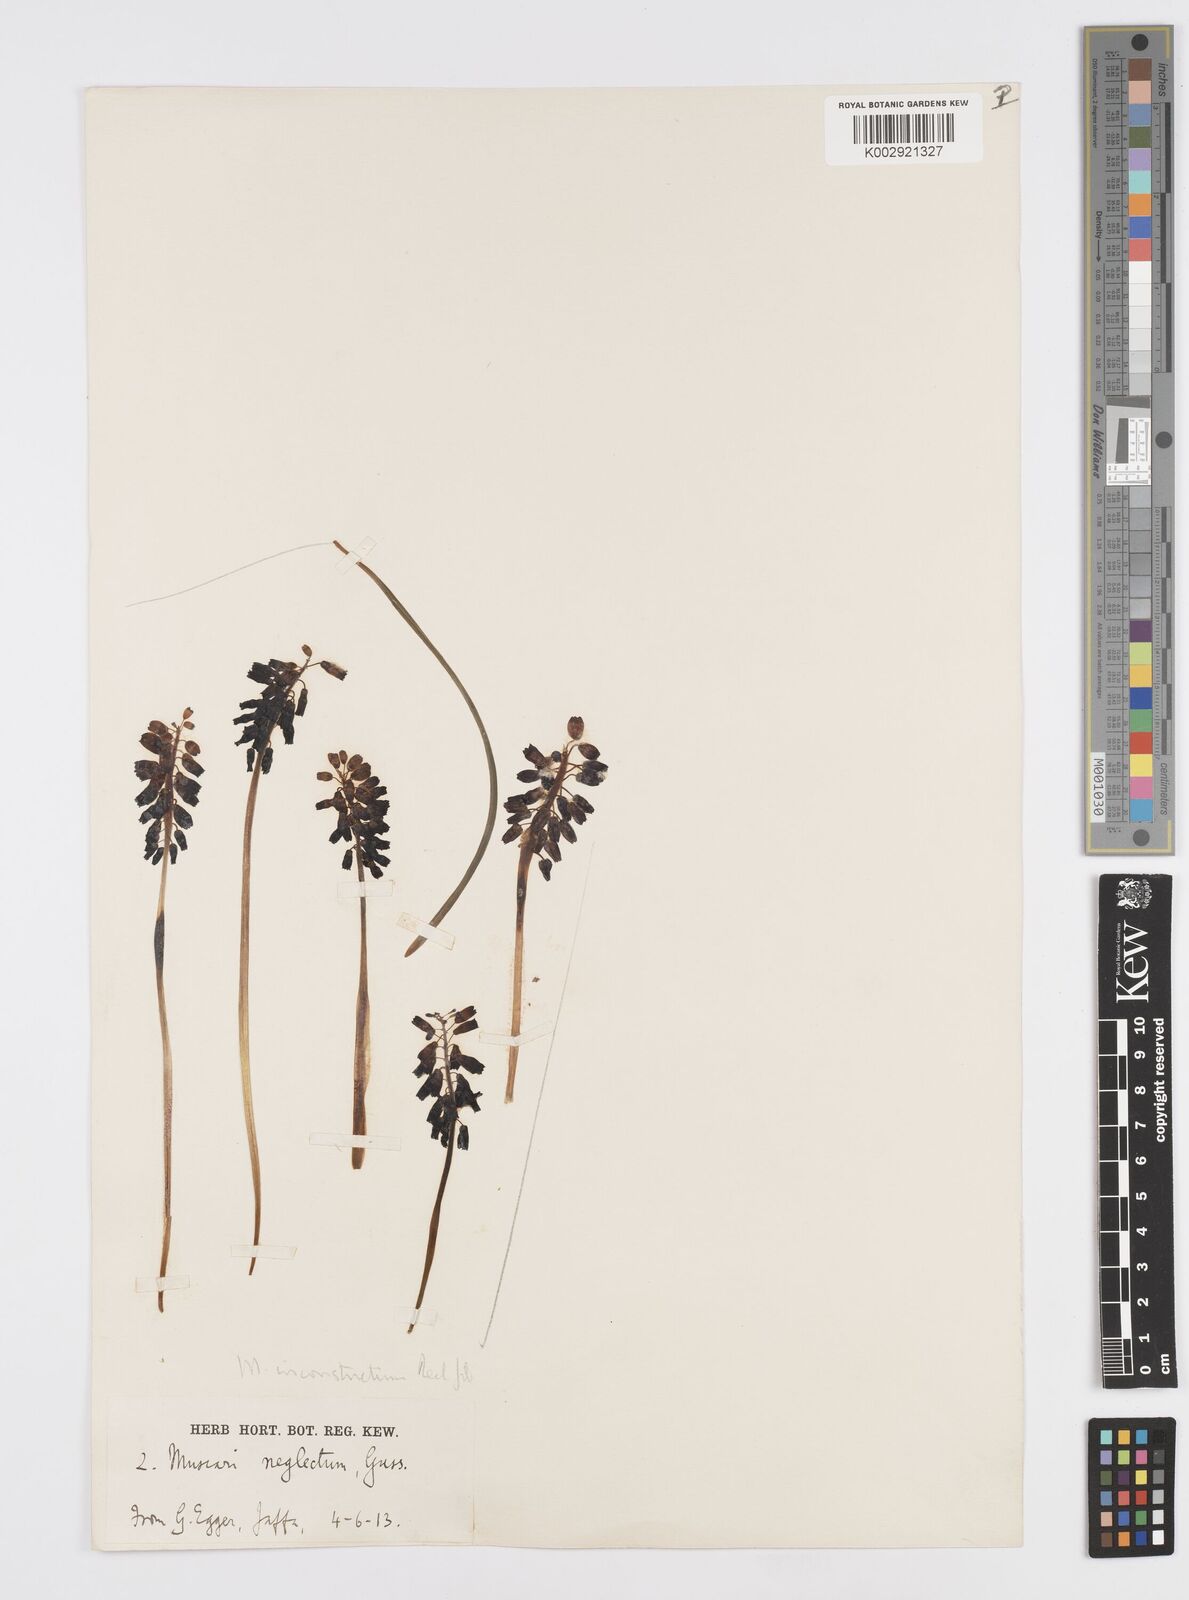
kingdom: Plantae
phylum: Tracheophyta
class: Liliopsida
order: Asparagales
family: Asparagaceae
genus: Muscari
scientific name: Muscari inconstrictum
